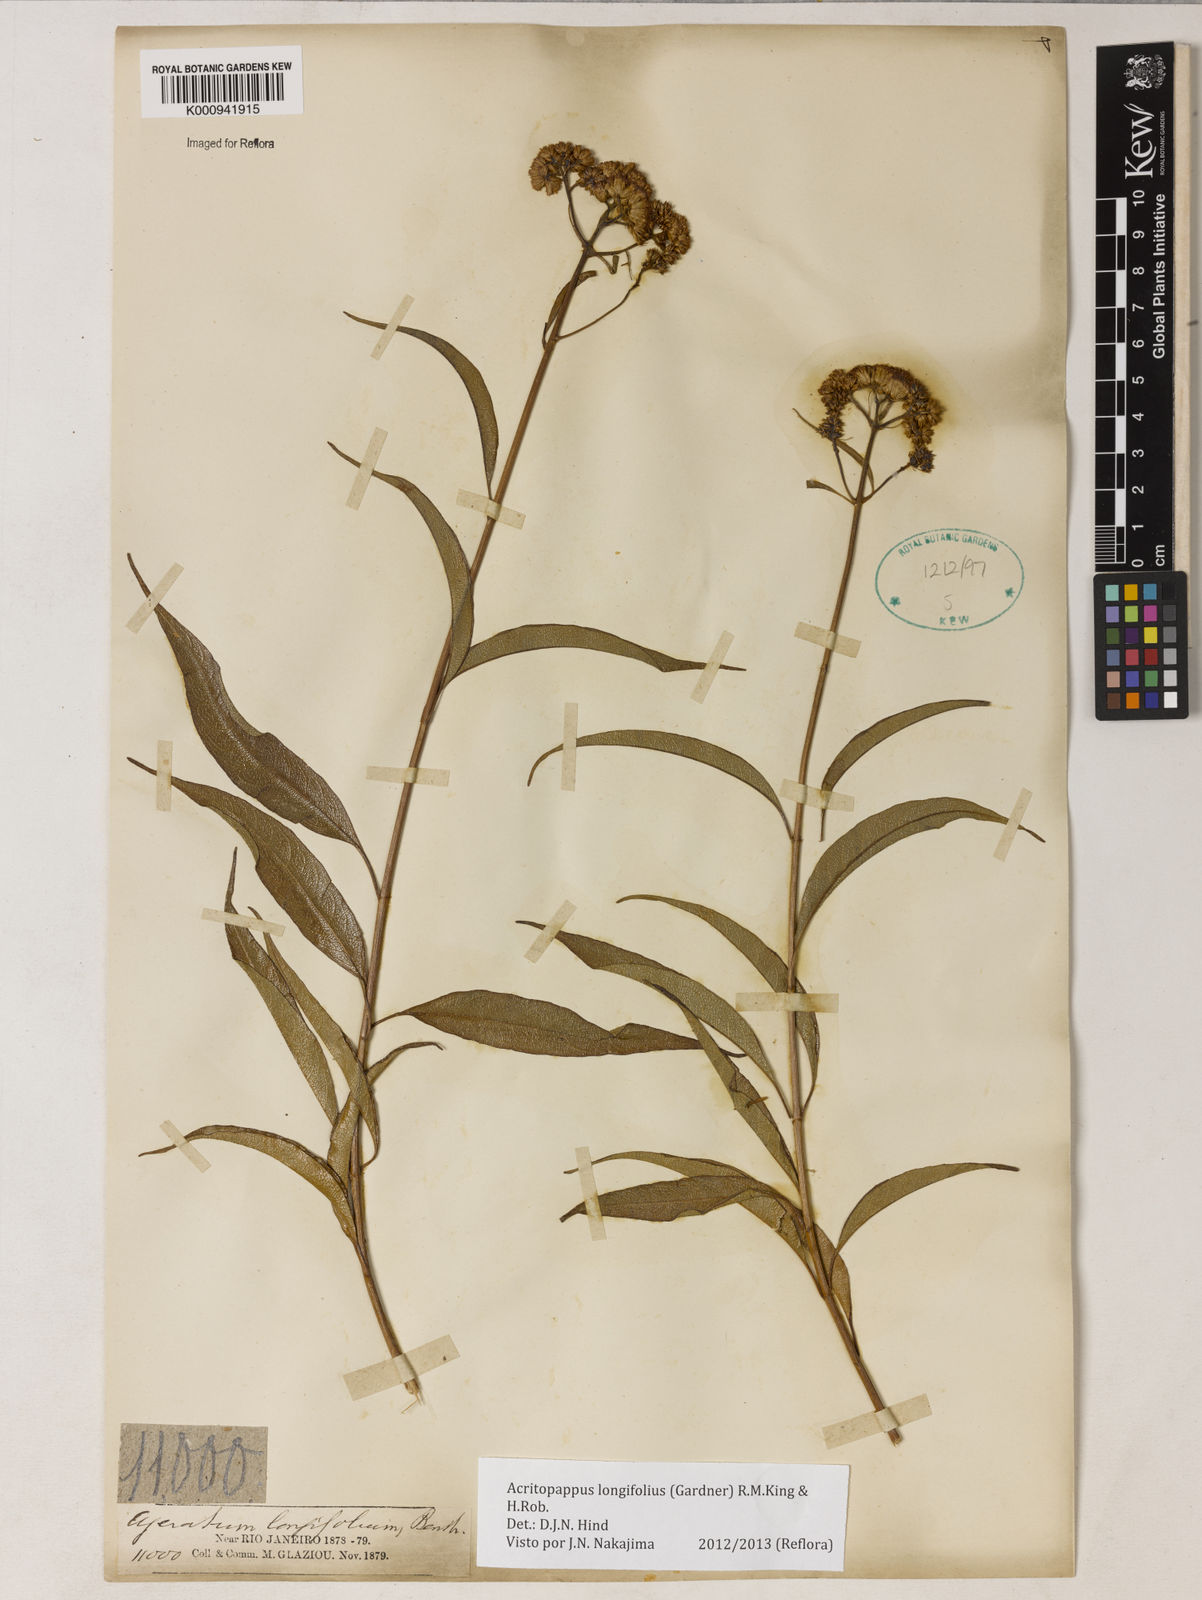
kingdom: Plantae
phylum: Tracheophyta
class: Magnoliopsida
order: Asterales
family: Asteraceae
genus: Acritopappus
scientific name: Acritopappus longifolius
